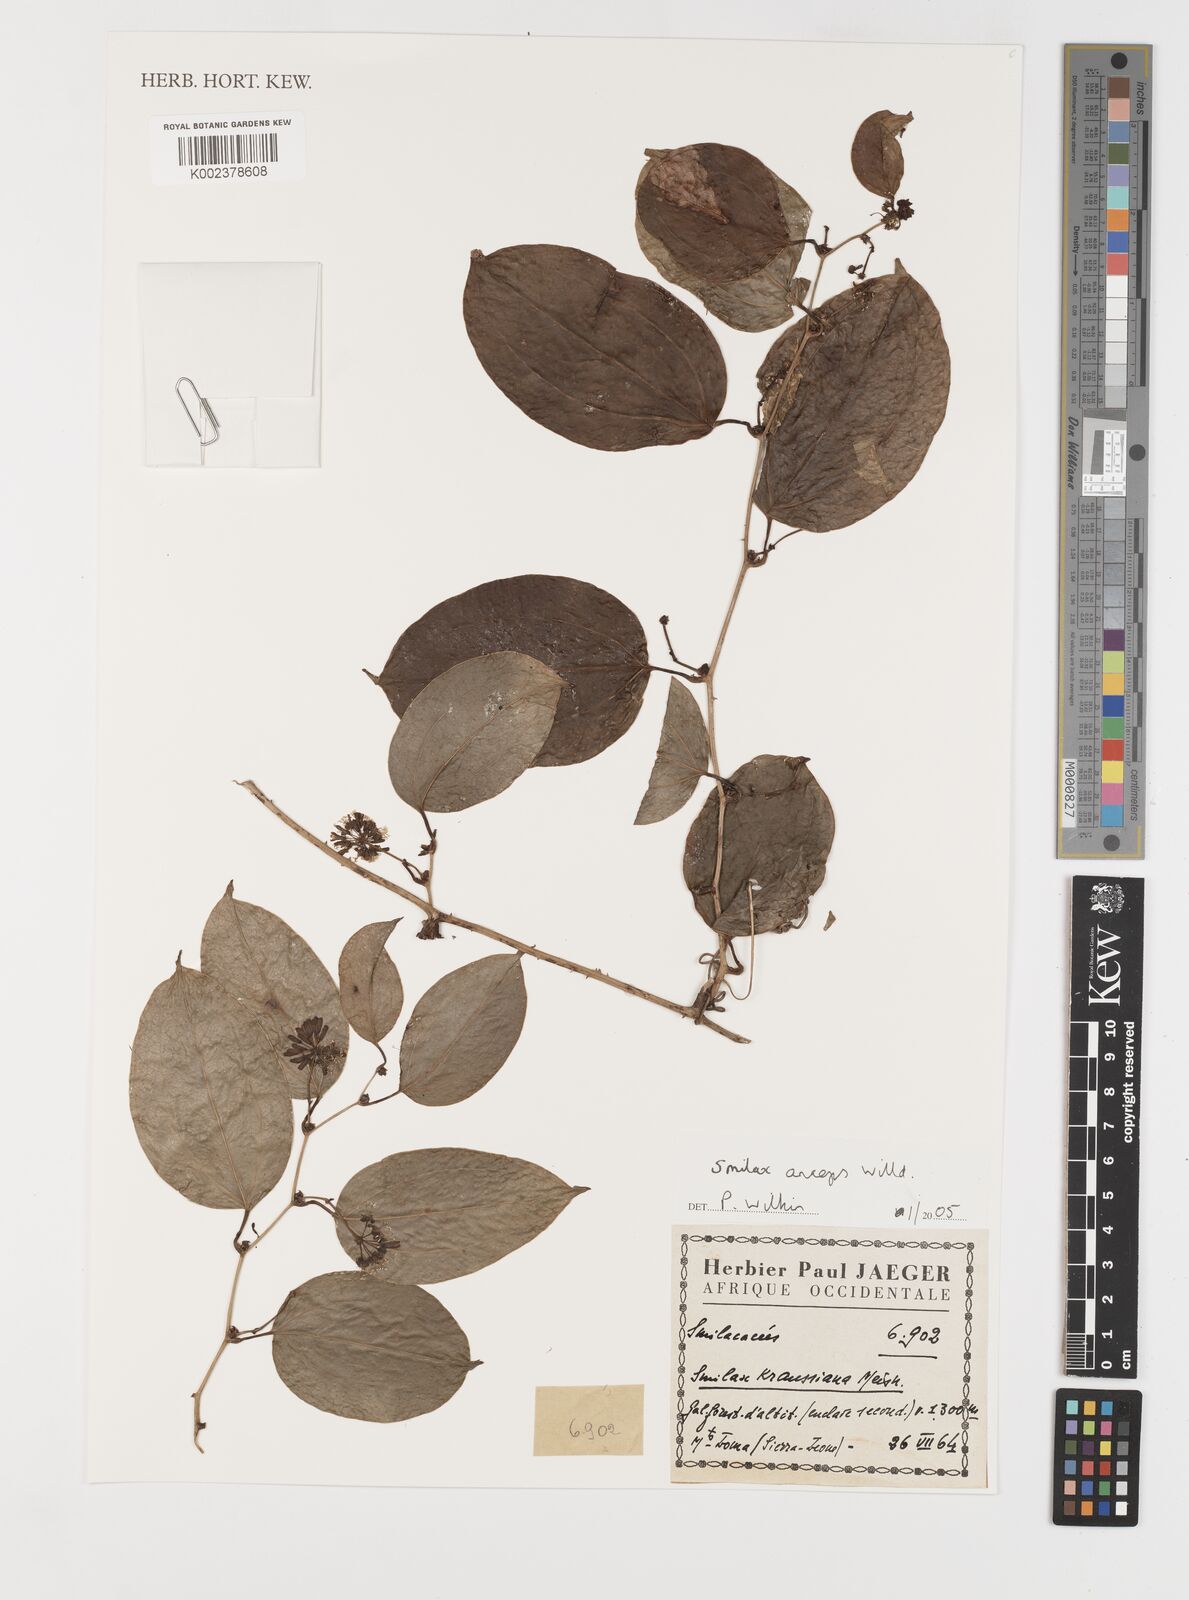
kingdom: Plantae
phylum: Tracheophyta
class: Liliopsida
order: Liliales
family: Smilacaceae
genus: Smilax
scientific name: Smilax anceps
